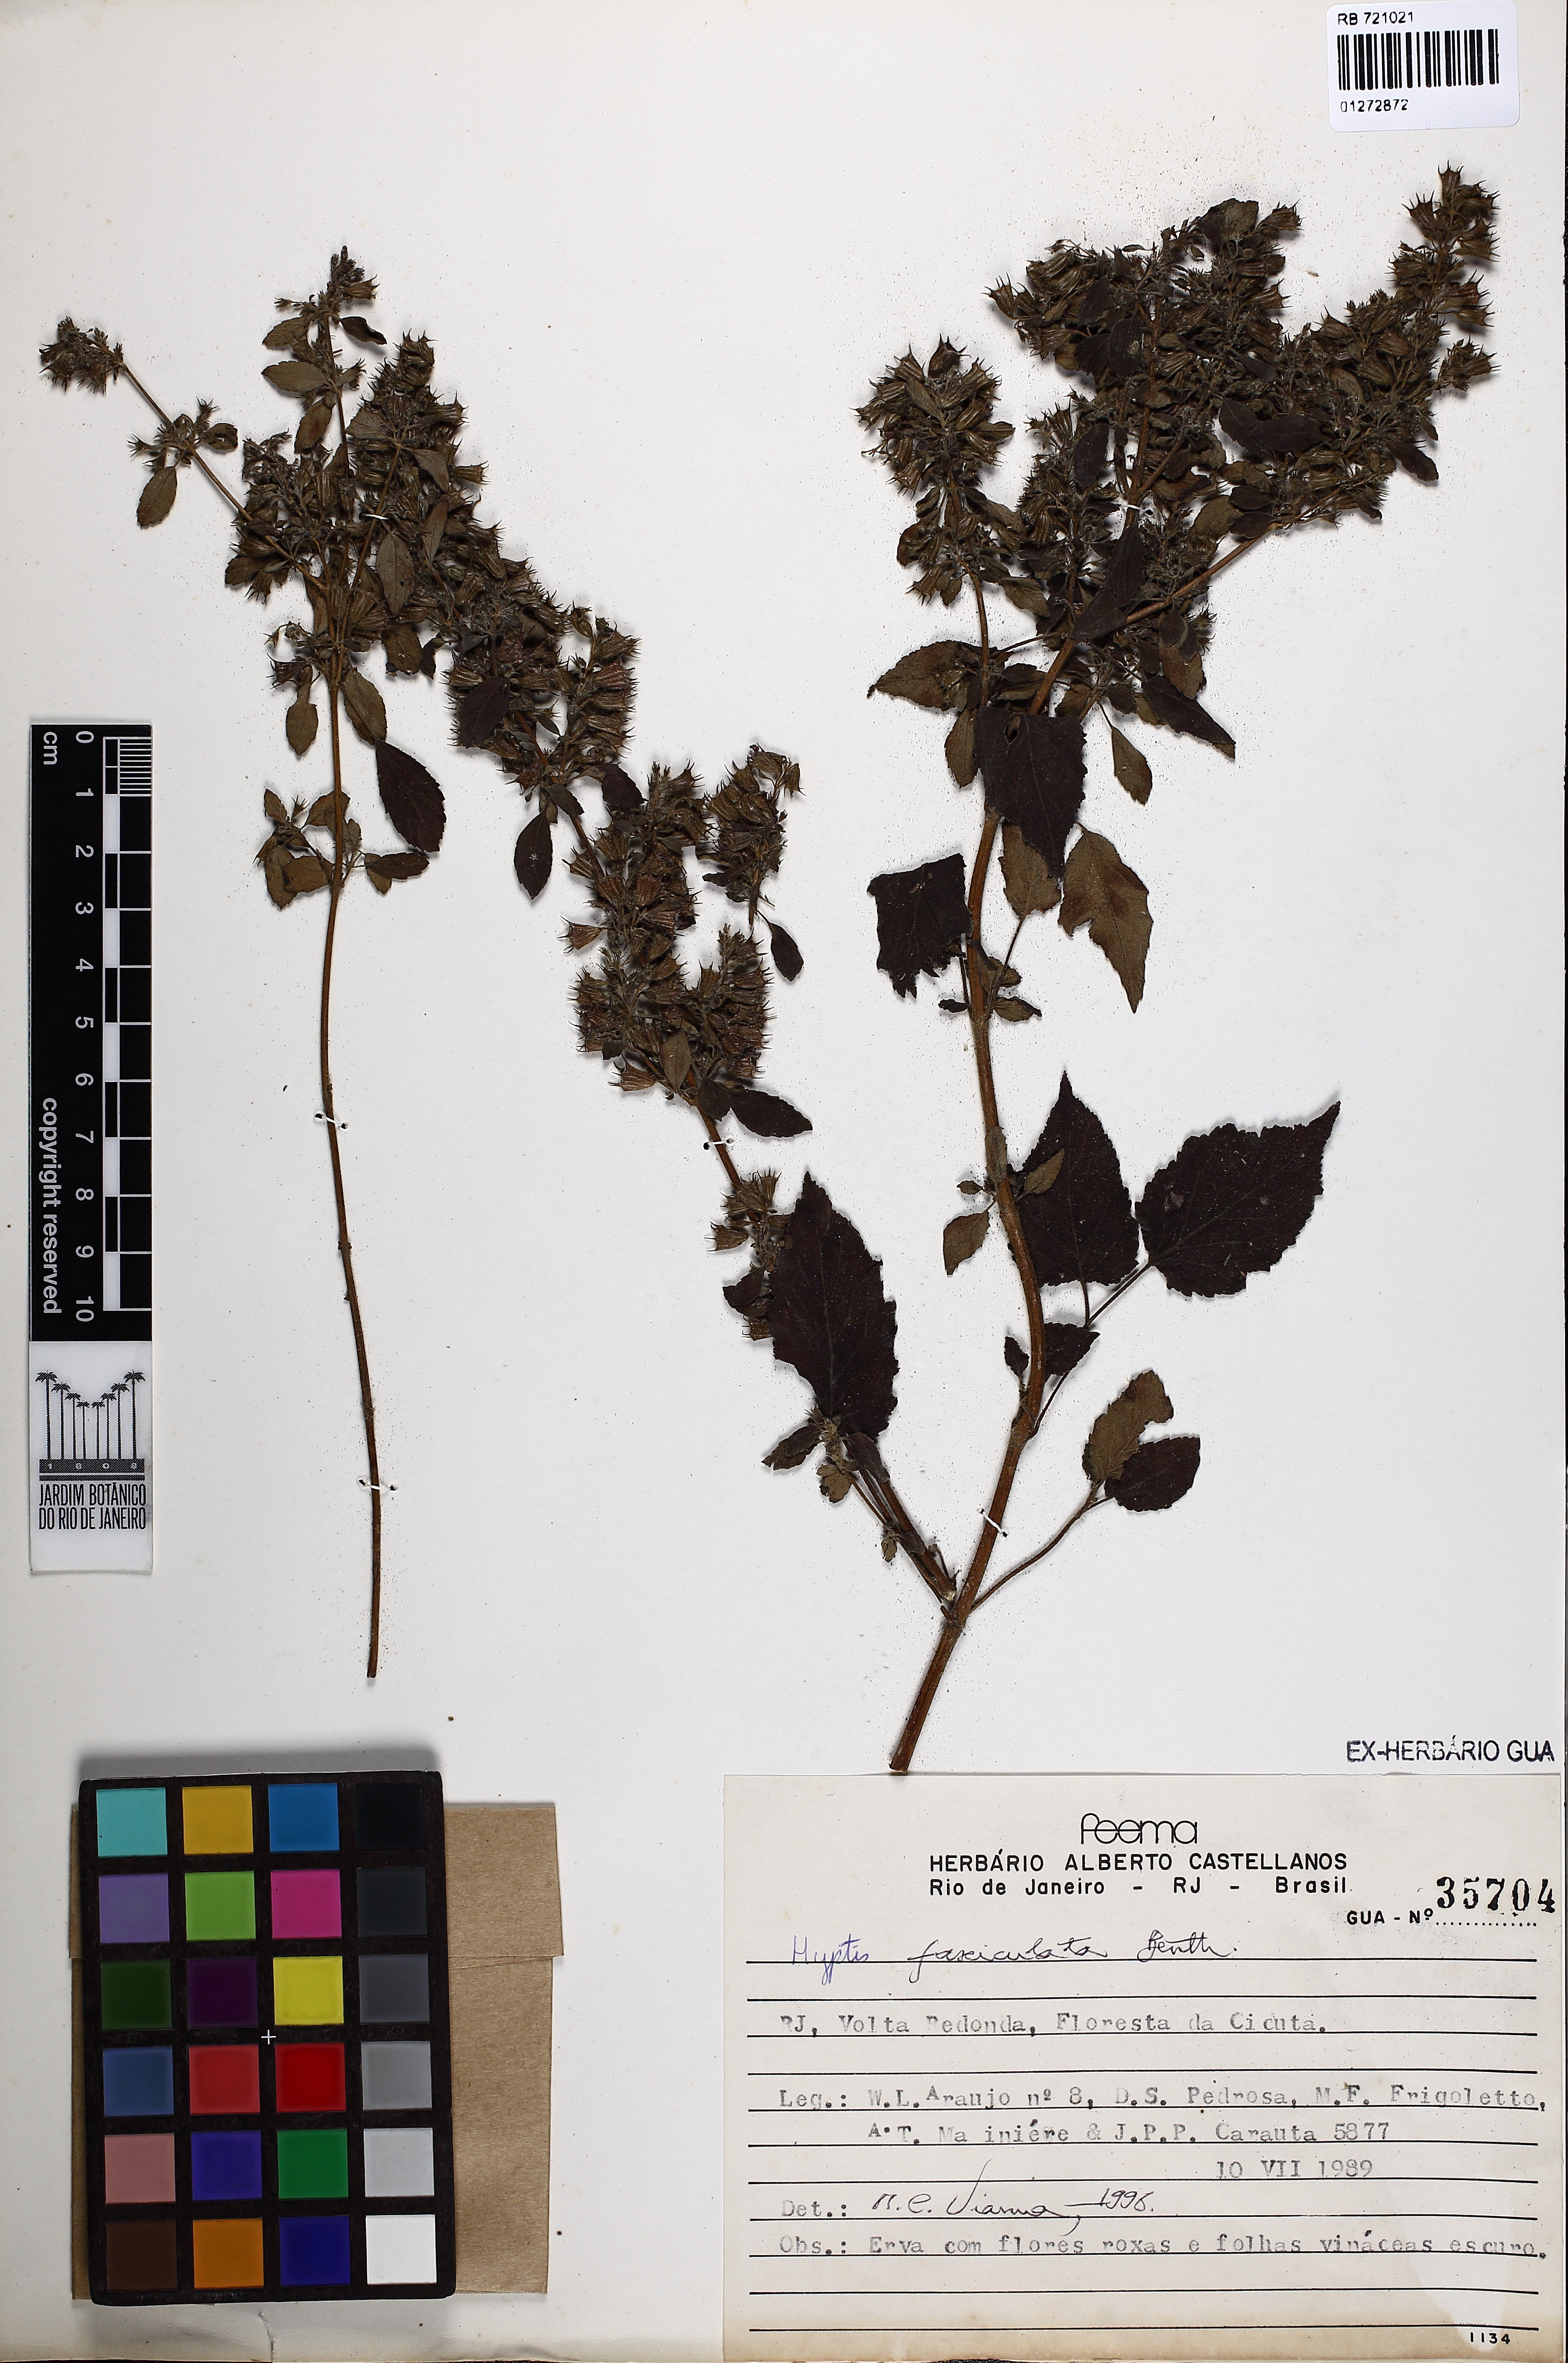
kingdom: Plantae
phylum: Tracheophyta
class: Magnoliopsida
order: Lamiales
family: Lamiaceae
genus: Condea
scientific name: Condea undulata
